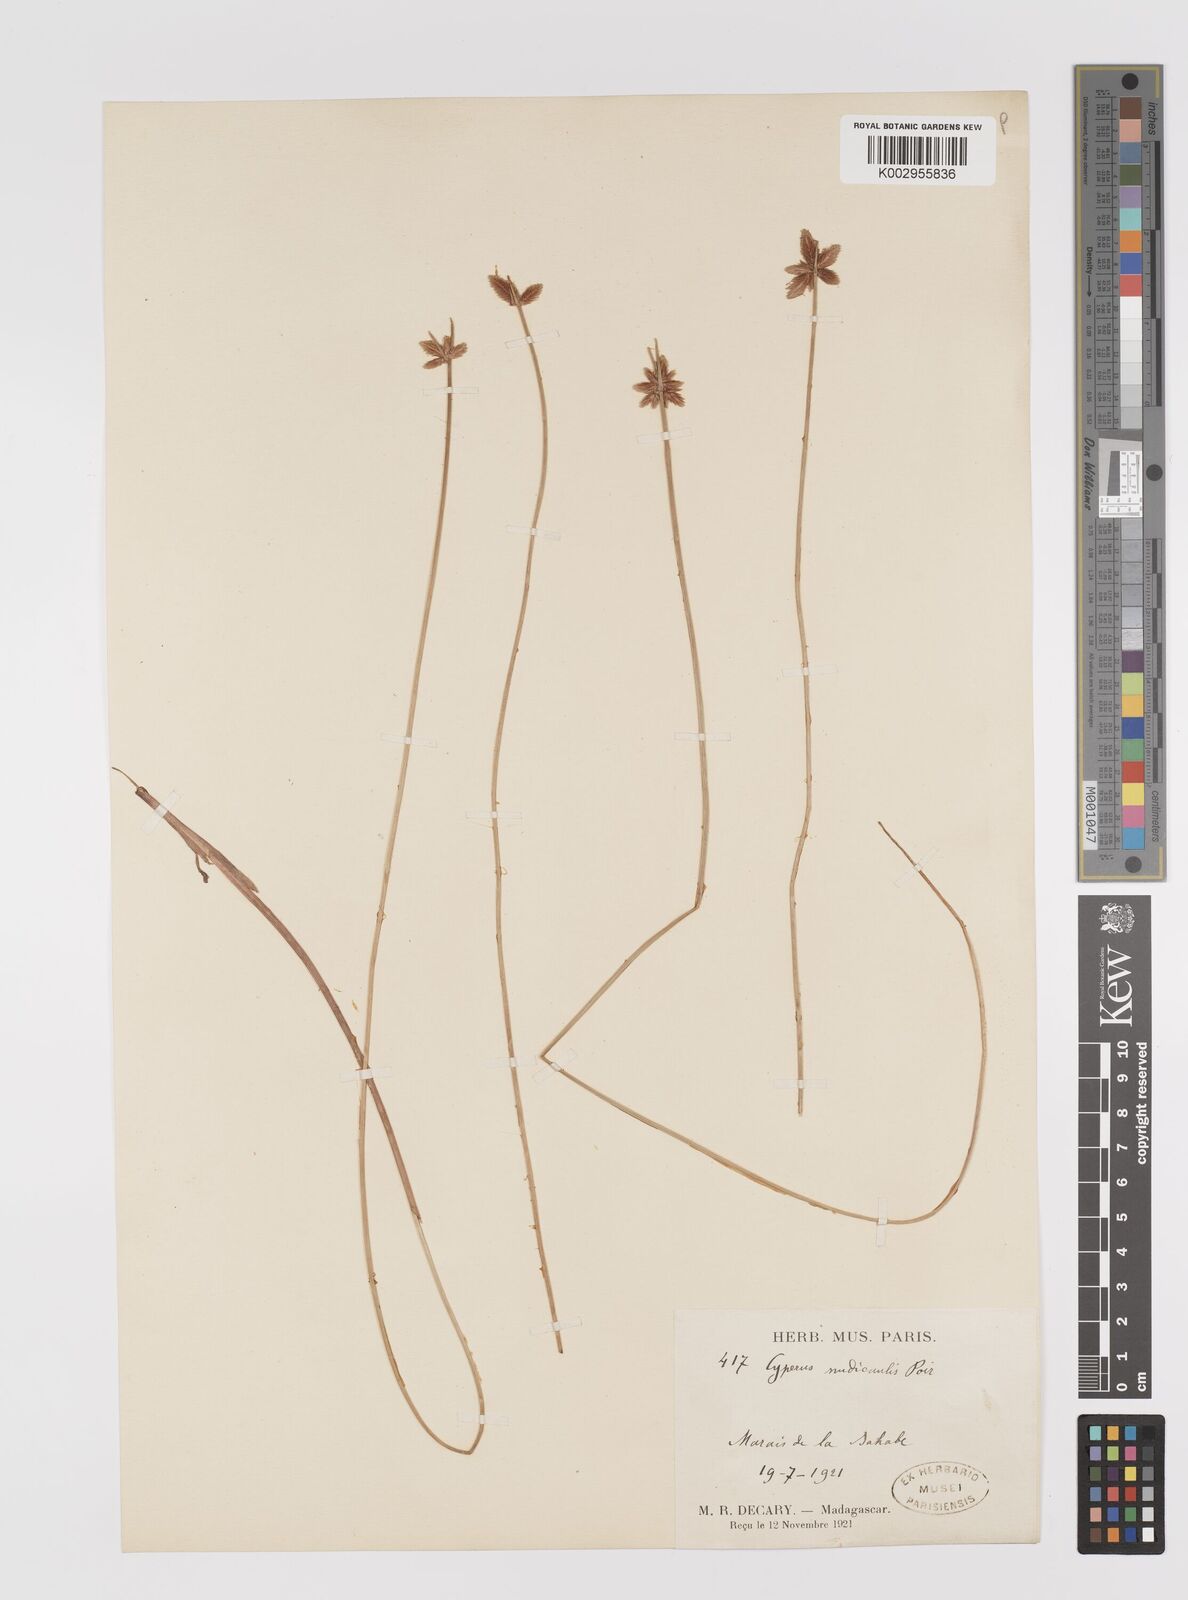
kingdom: Plantae
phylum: Tracheophyta
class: Liliopsida
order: Poales
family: Cyperaceae
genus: Cyperus
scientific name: Cyperus compressus
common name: Poorland flatsedge
